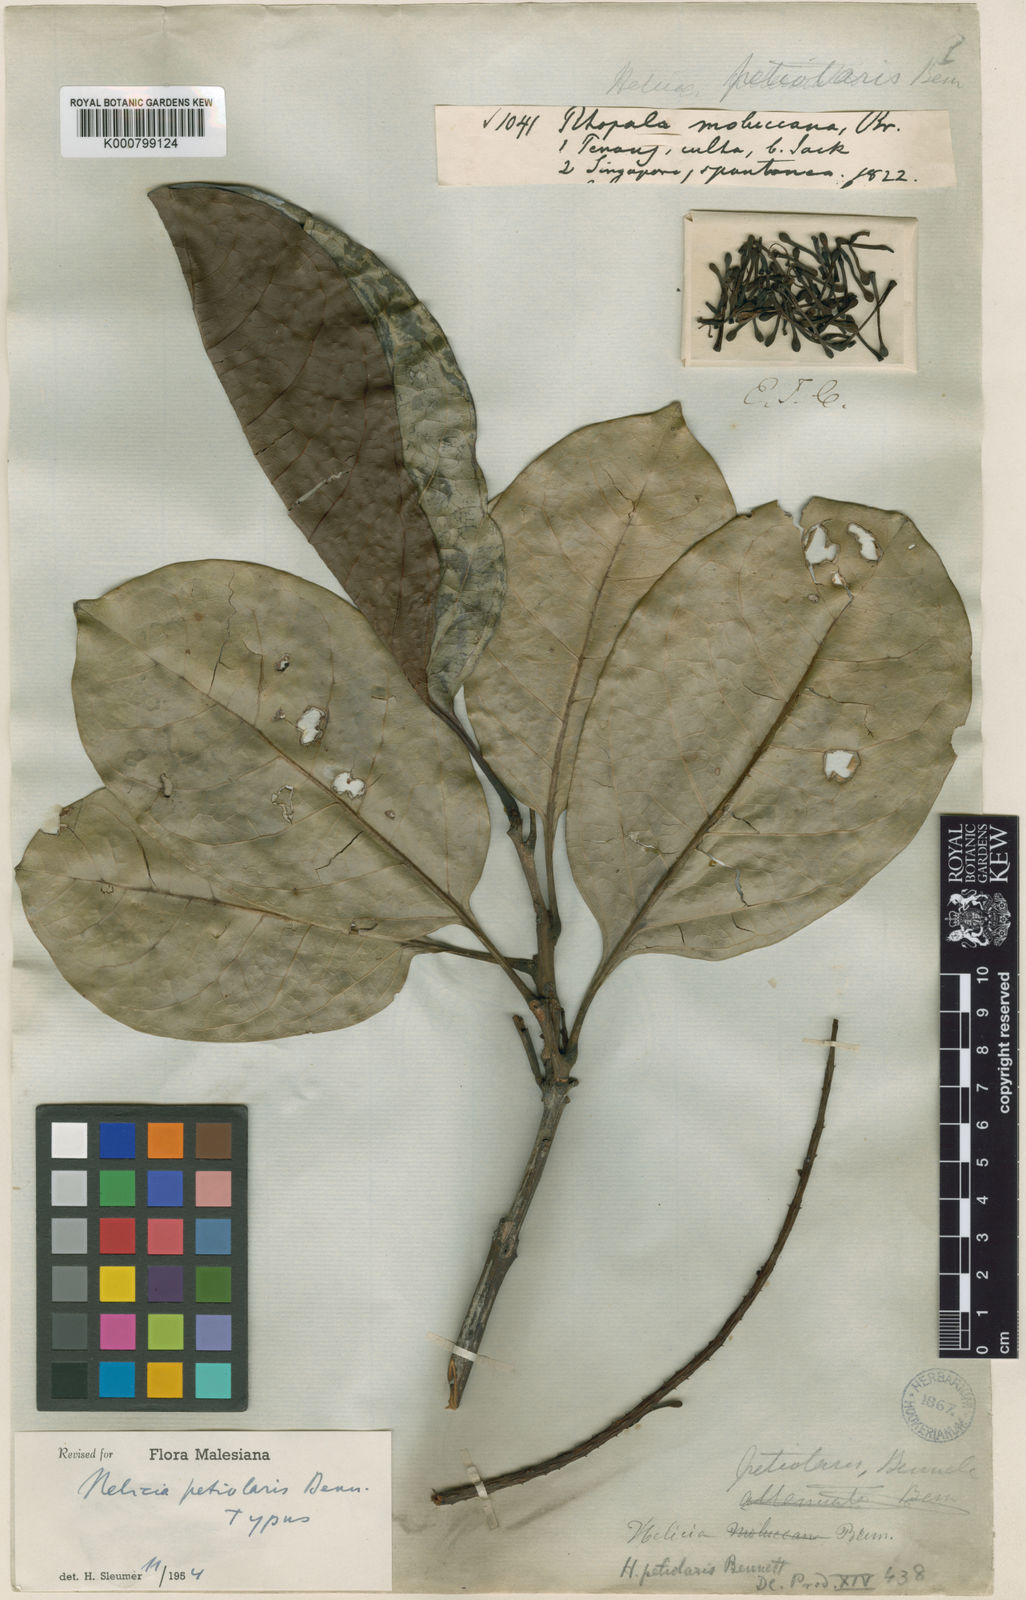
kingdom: Plantae
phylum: Tracheophyta
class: Magnoliopsida
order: Proteales
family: Proteaceae
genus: Helicia
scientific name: Helicia petiolaris
